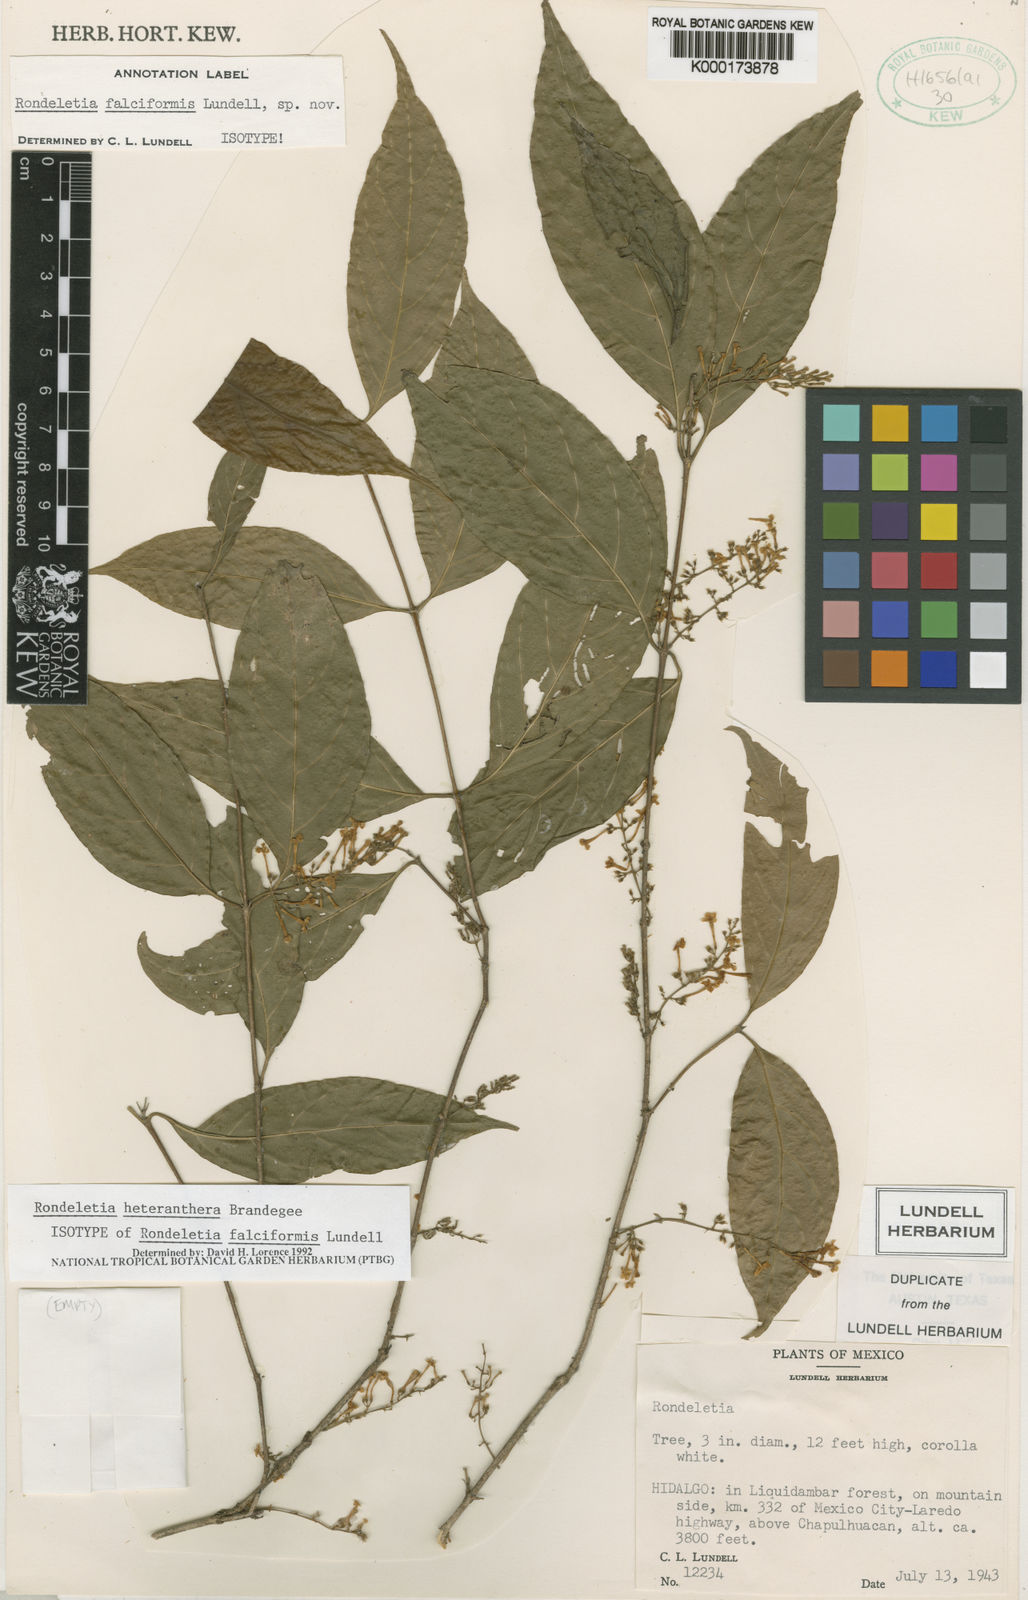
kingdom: Plantae
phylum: Tracheophyta
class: Magnoliopsida
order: Gentianales
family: Rubiaceae
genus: Arachnothryx
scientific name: Arachnothryx heteranthera
